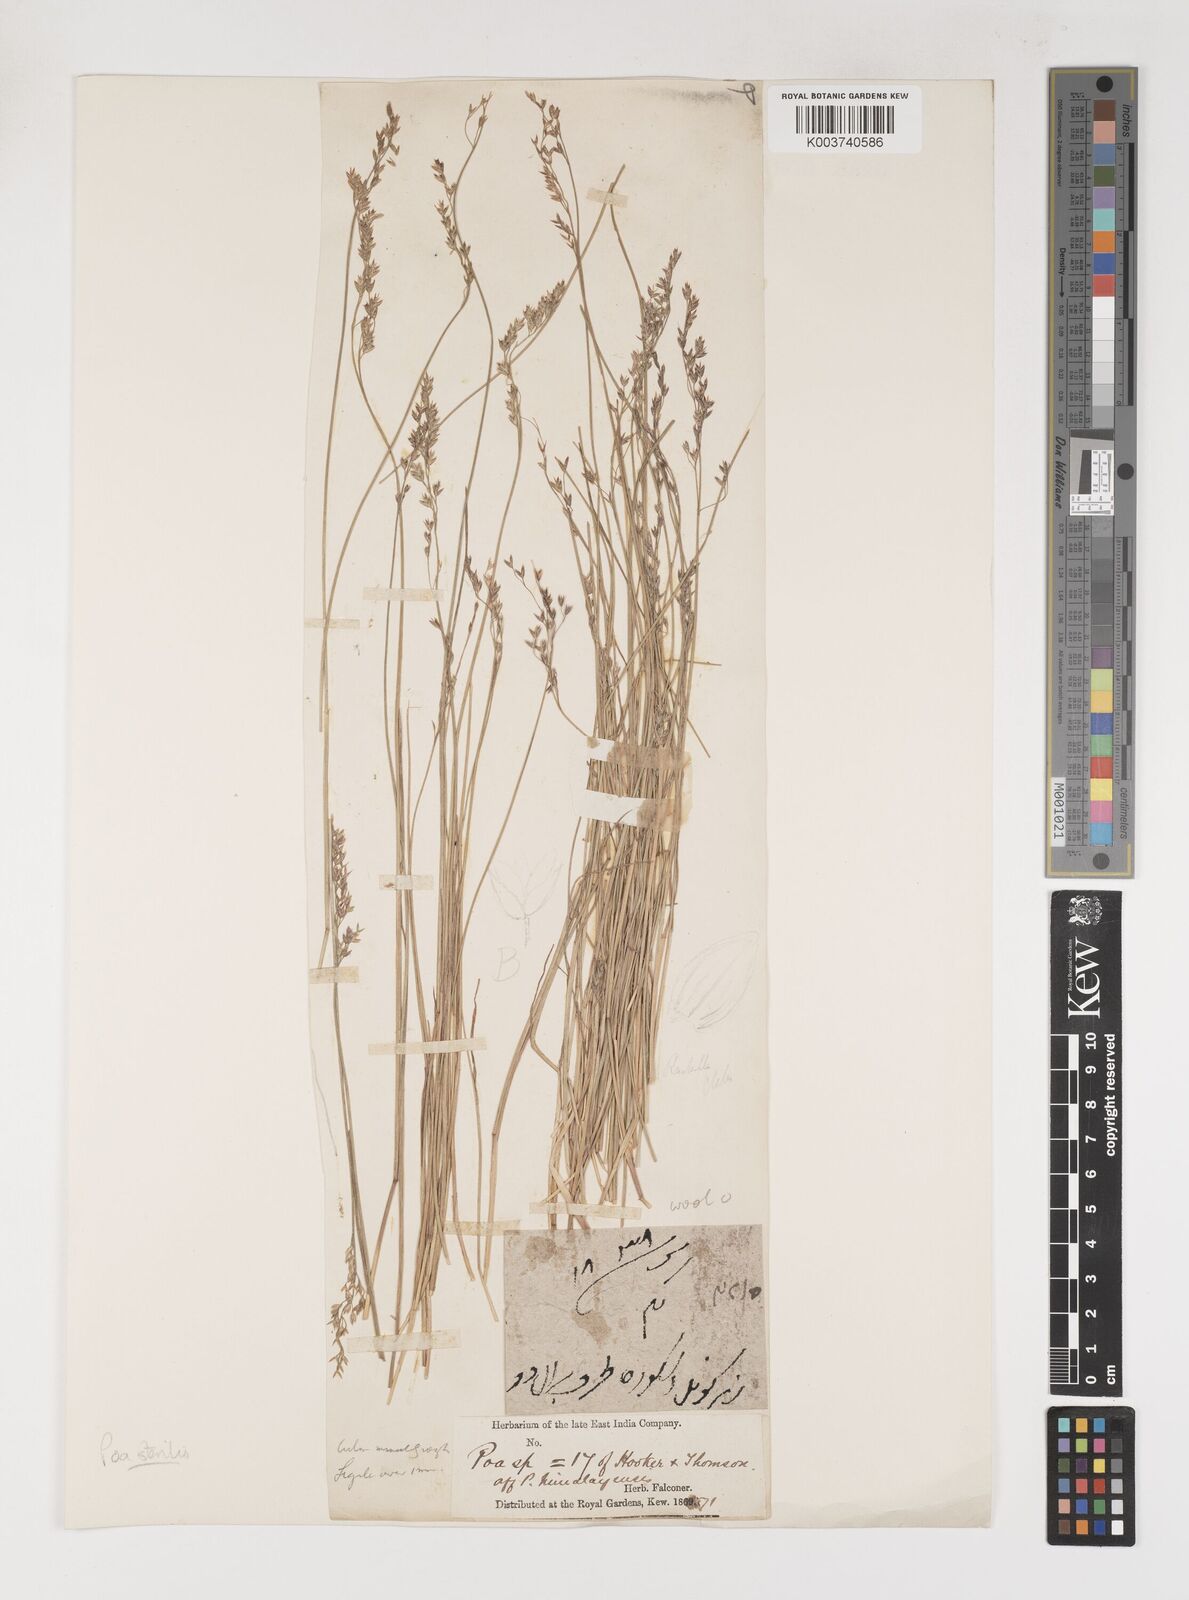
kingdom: Plantae
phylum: Tracheophyta
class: Liliopsida
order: Poales
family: Poaceae
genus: Poa
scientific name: Poa sterilis
